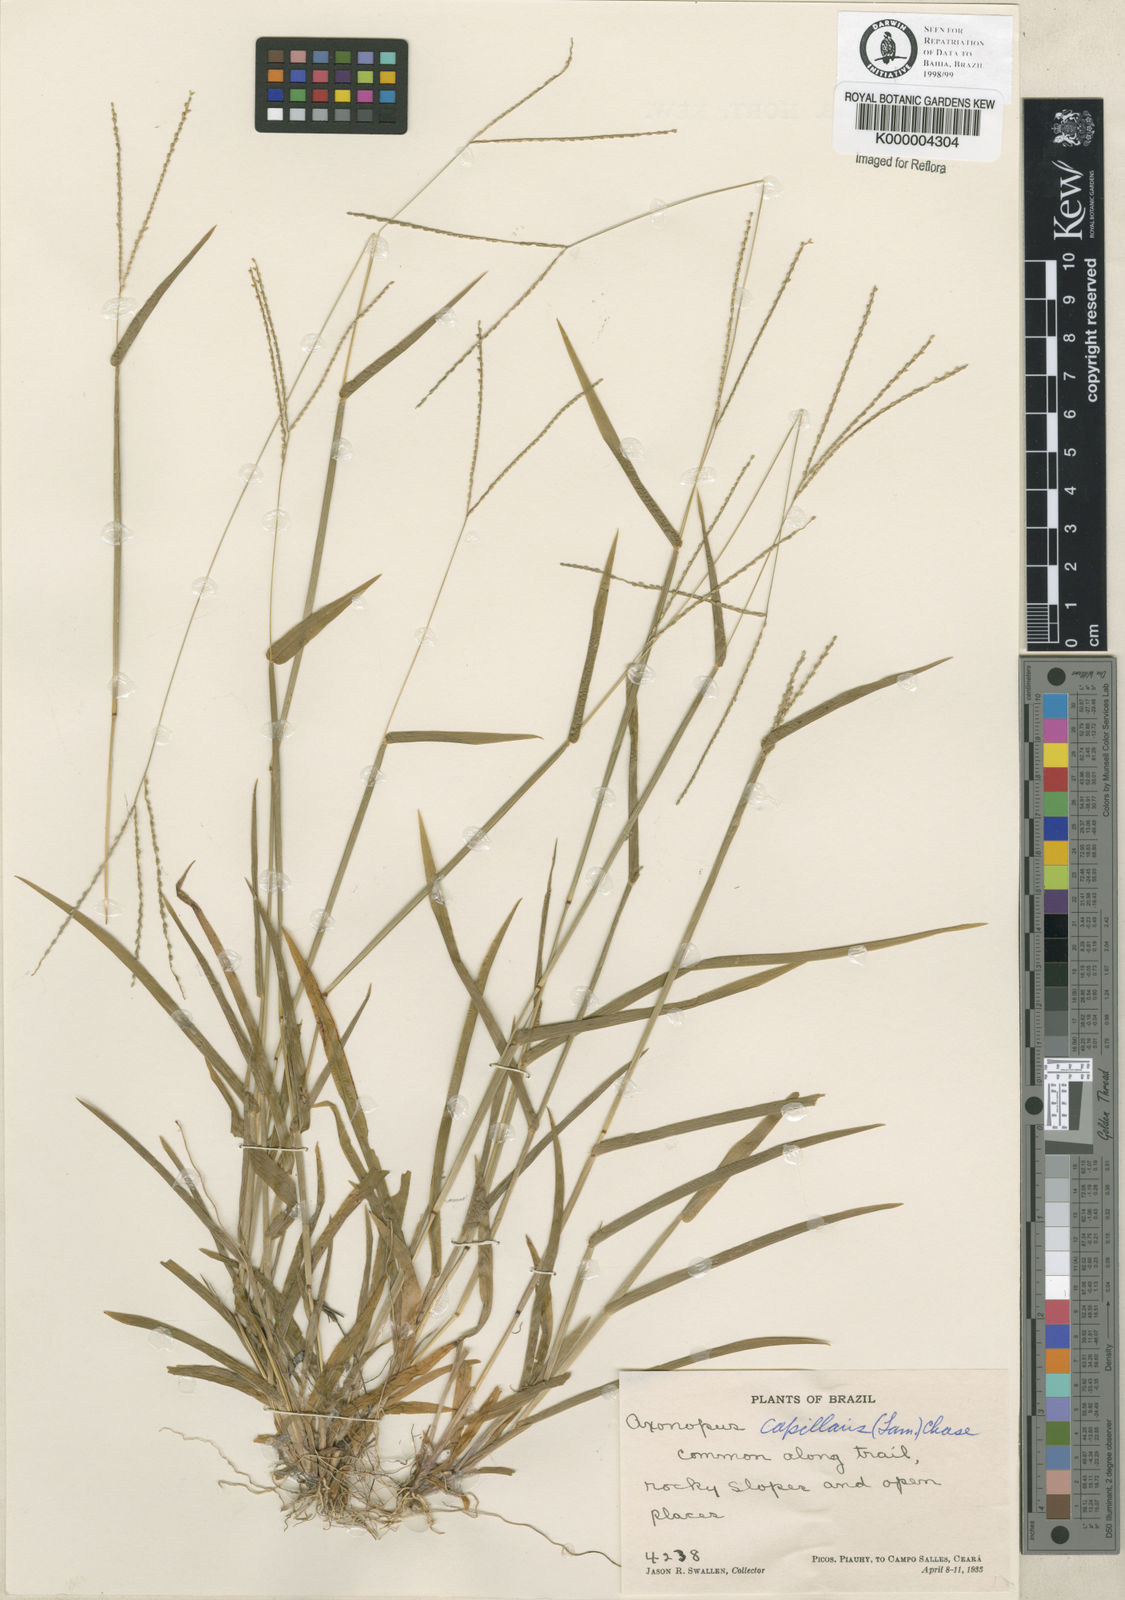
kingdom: Plantae
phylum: Tracheophyta
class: Liliopsida
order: Poales
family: Poaceae
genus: Axonopus
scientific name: Axonopus capillaris
